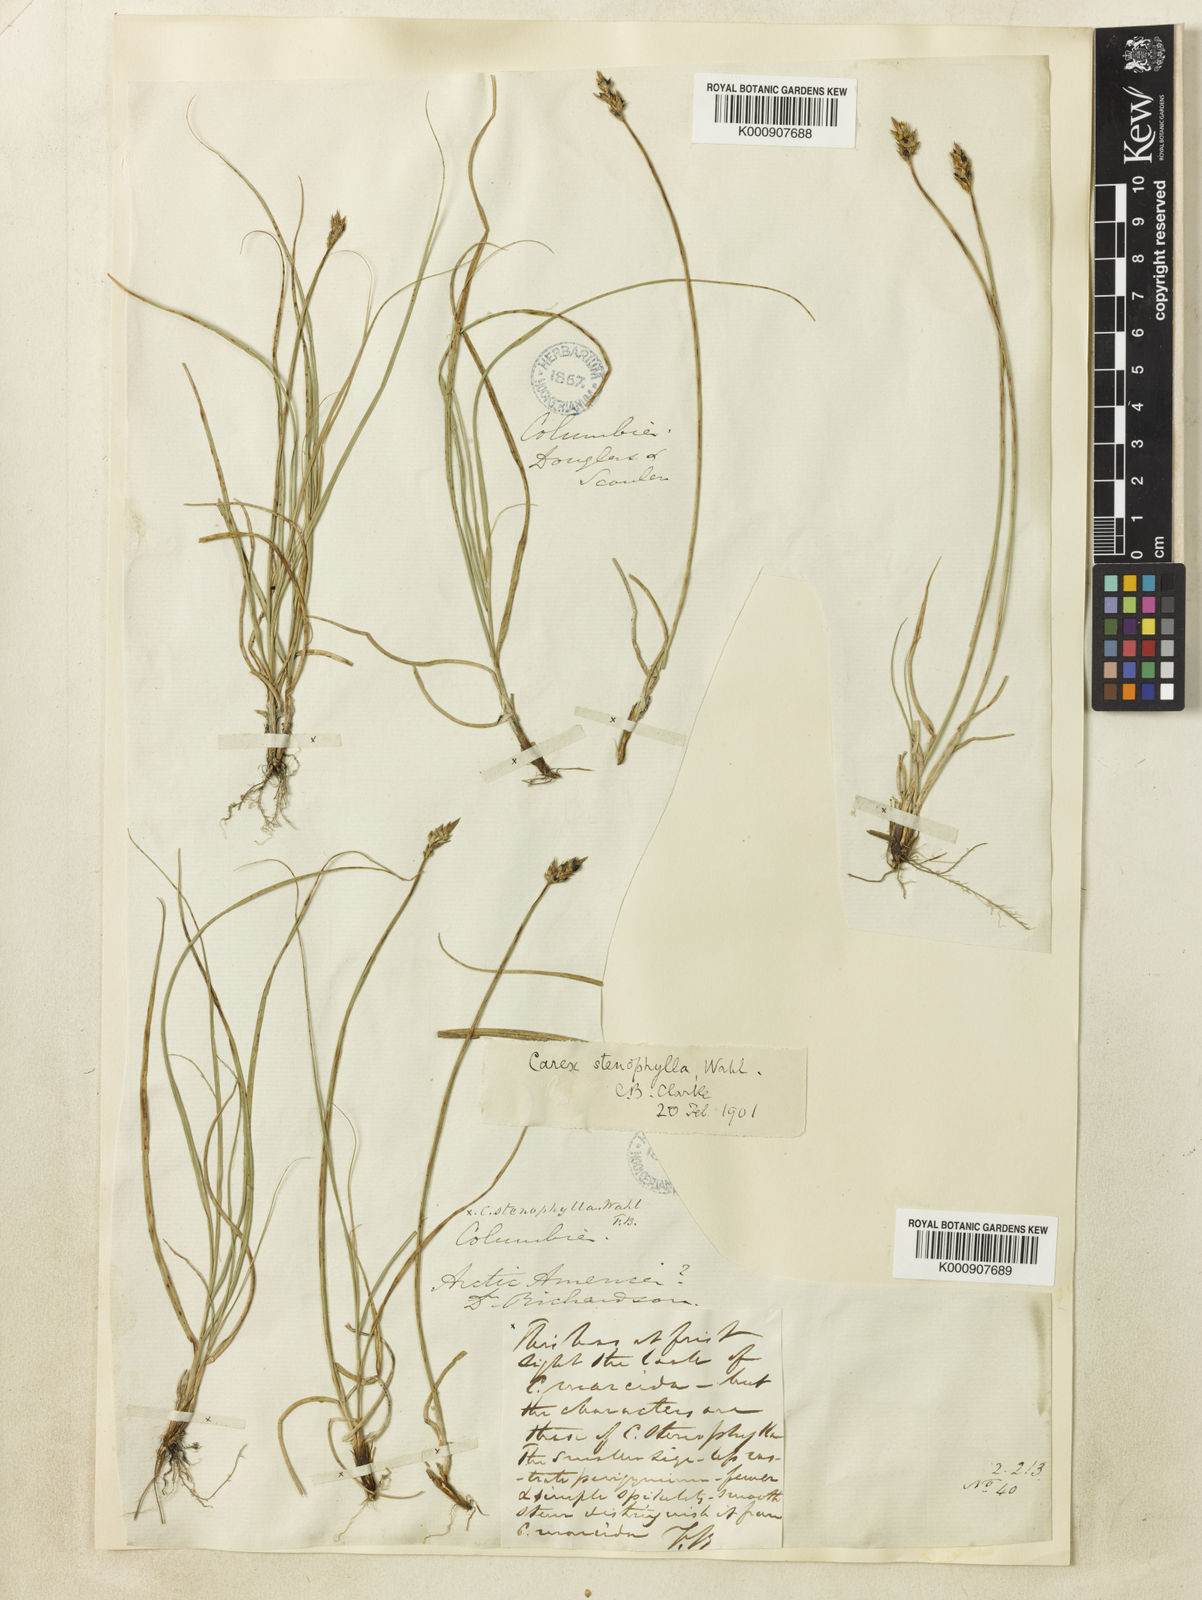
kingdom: Plantae
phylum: Tracheophyta
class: Liliopsida
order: Poales
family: Cyperaceae
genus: Carex
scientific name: Carex duriuscula
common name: Involute-leaved sedge
